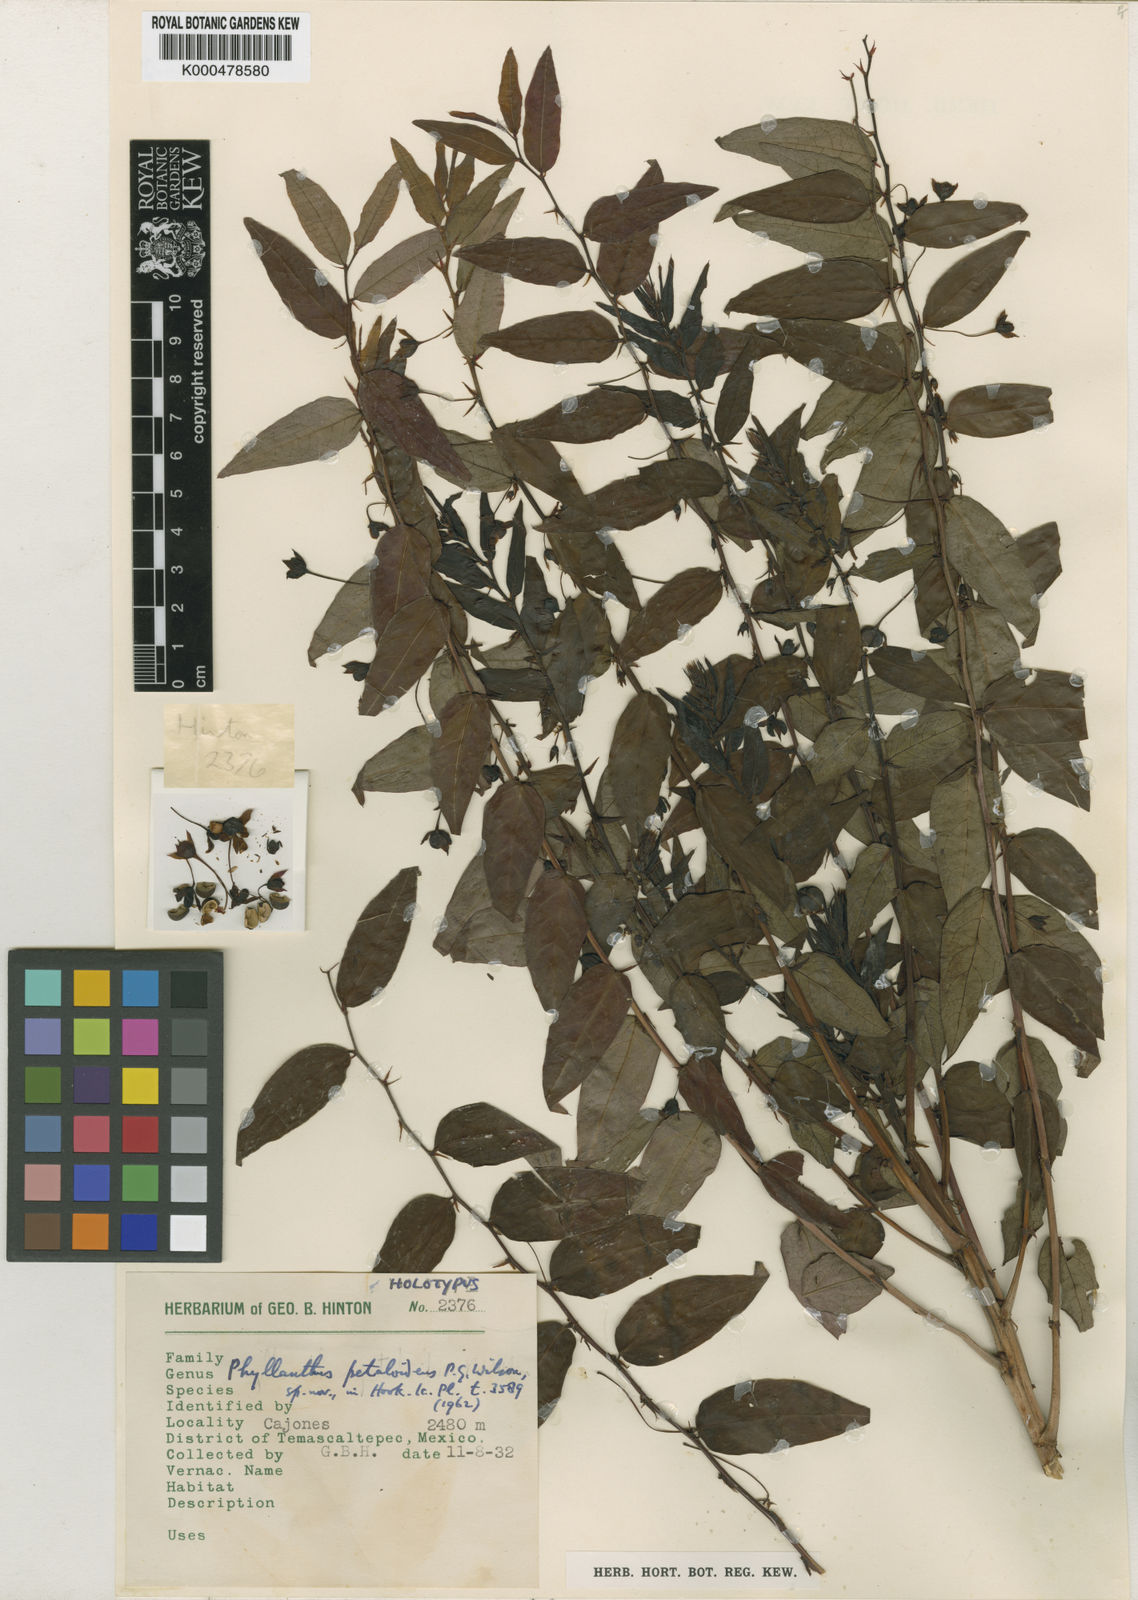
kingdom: Plantae
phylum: Tracheophyta
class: Magnoliopsida
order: Malpighiales
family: Phyllanthaceae
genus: Phyllanthus
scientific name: Phyllanthus petaloideus
